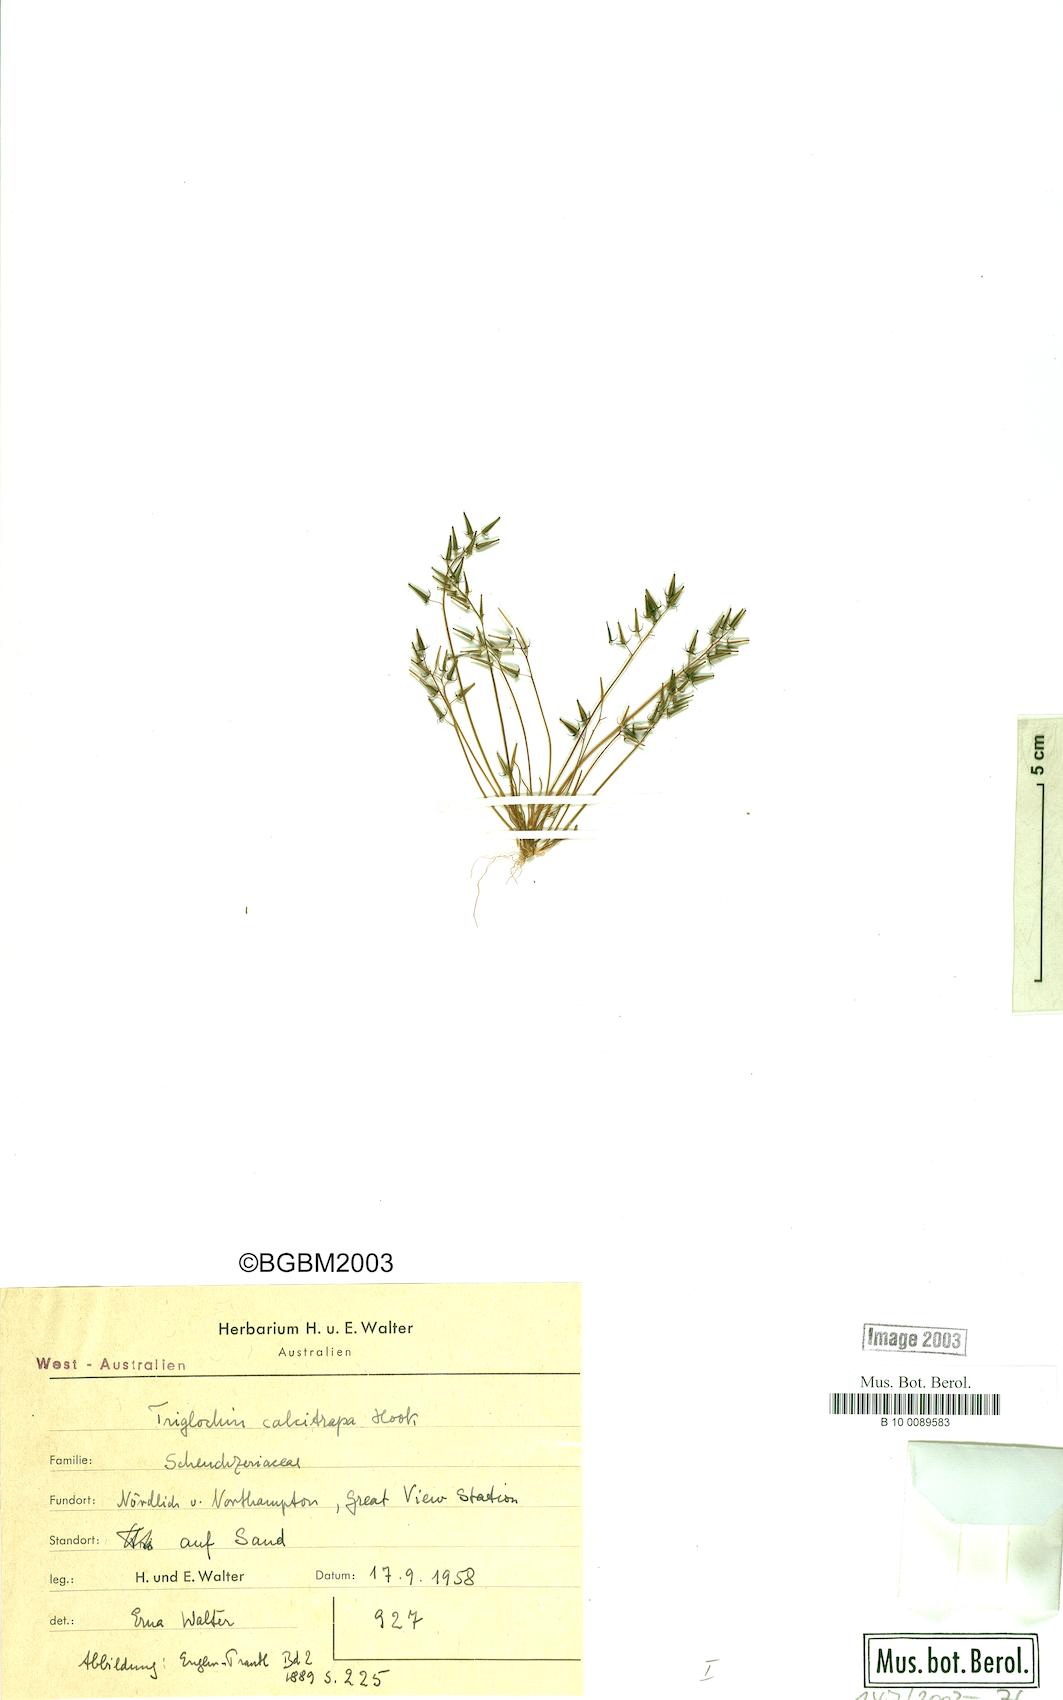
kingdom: Plantae
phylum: Tracheophyta
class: Liliopsida
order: Alismatales
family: Juncaginaceae
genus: Triglochin
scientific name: Triglochin calcitrapa
